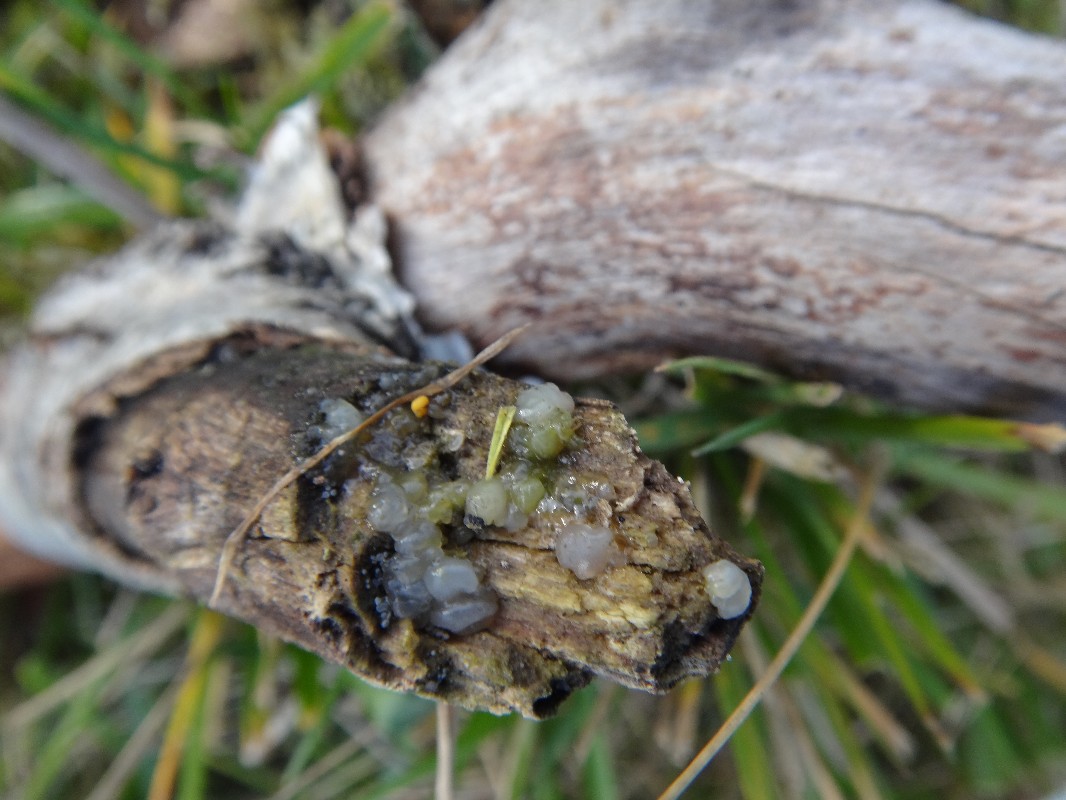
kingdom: Fungi
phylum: Basidiomycota
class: Agaricomycetes
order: Auriculariales
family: Hyaloriaceae
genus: Myxarium
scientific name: Myxarium nucleatum
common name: klar bævretop
